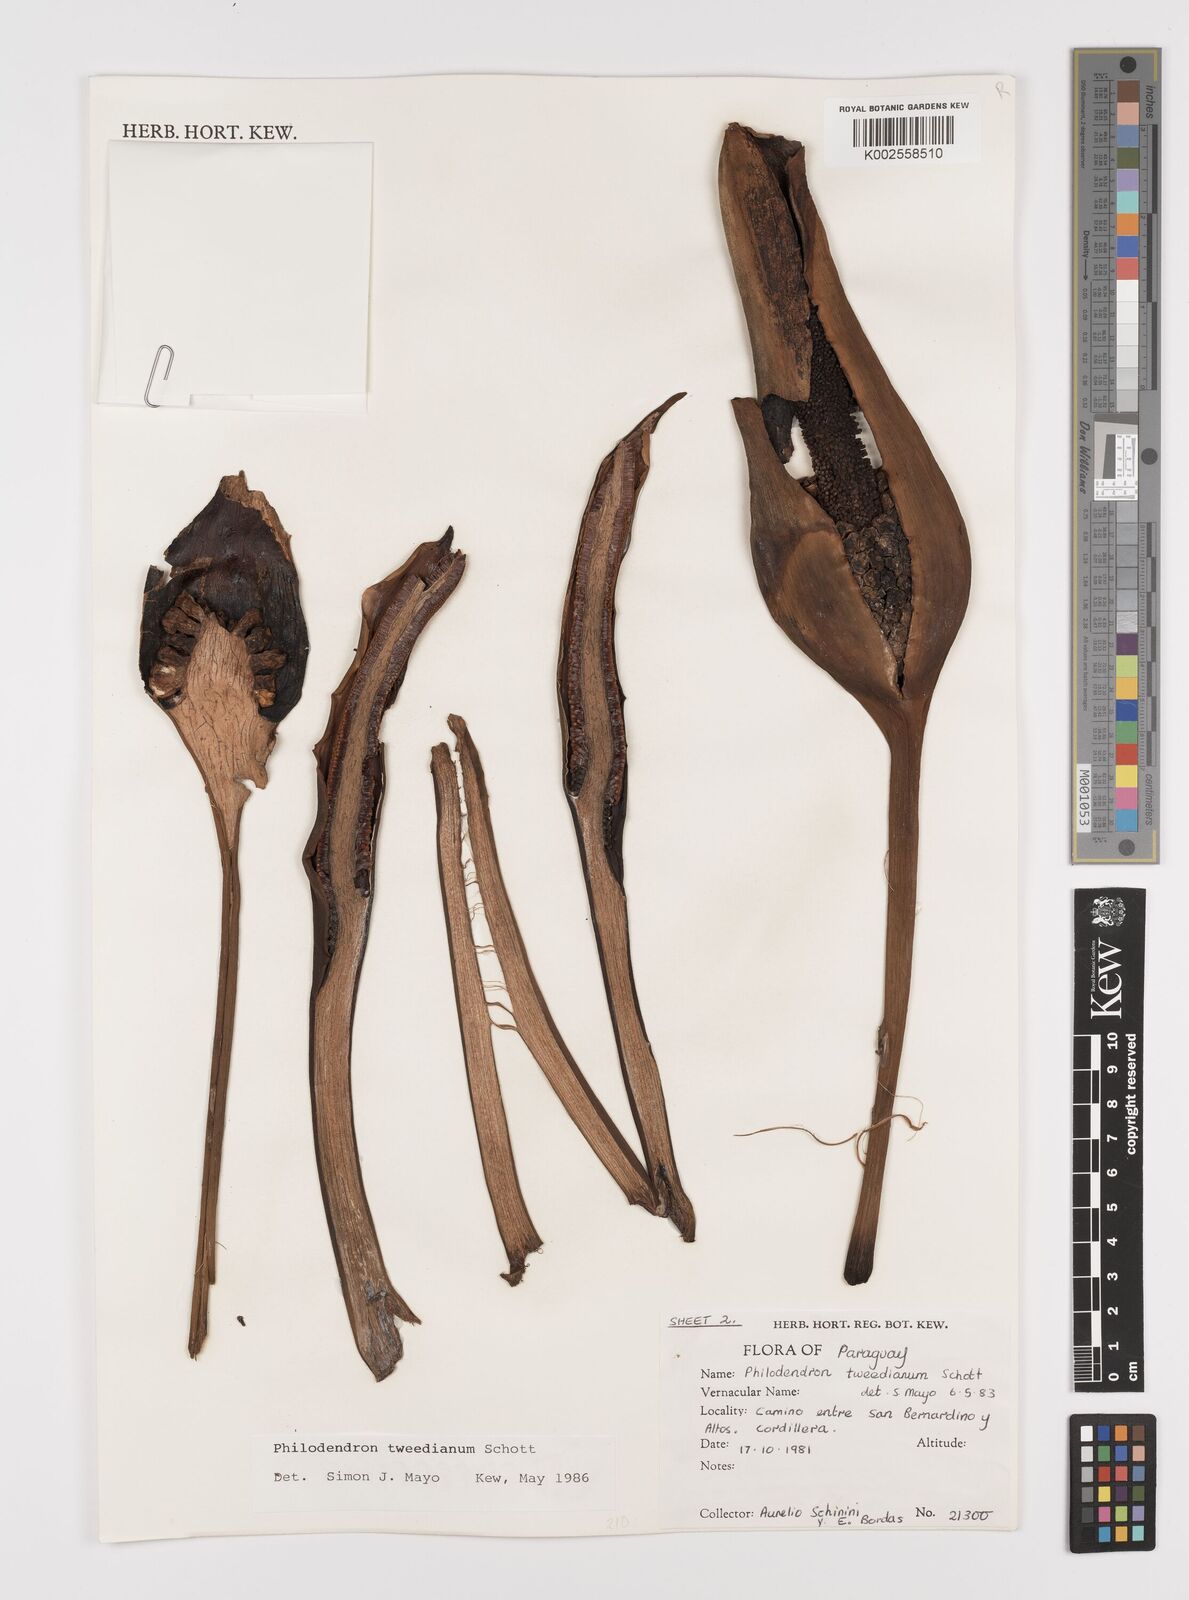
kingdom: Plantae
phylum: Tracheophyta
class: Liliopsida
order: Alismatales
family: Araceae
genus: Thaumatophyllum
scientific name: Thaumatophyllum tweedieanum
